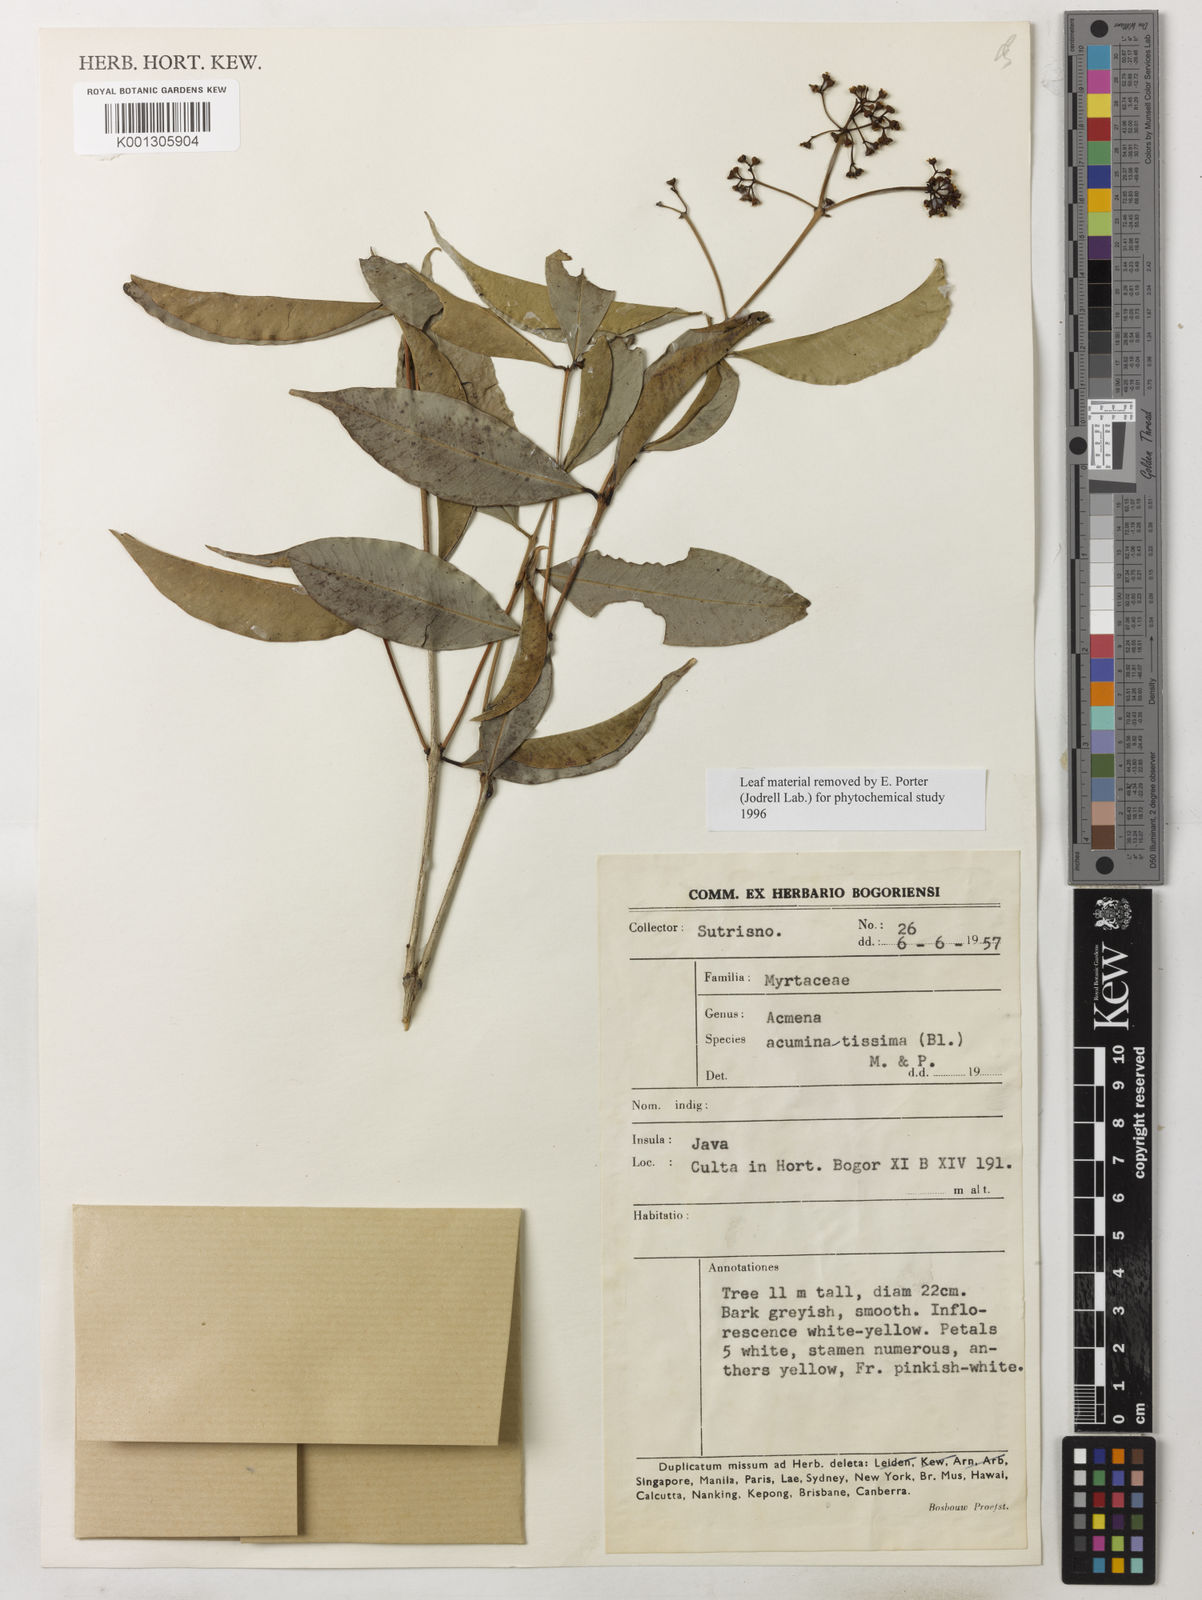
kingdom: Plantae
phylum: Tracheophyta
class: Magnoliopsida
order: Myrtales
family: Myrtaceae
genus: Syzygium
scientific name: Syzygium acuminatissimum
